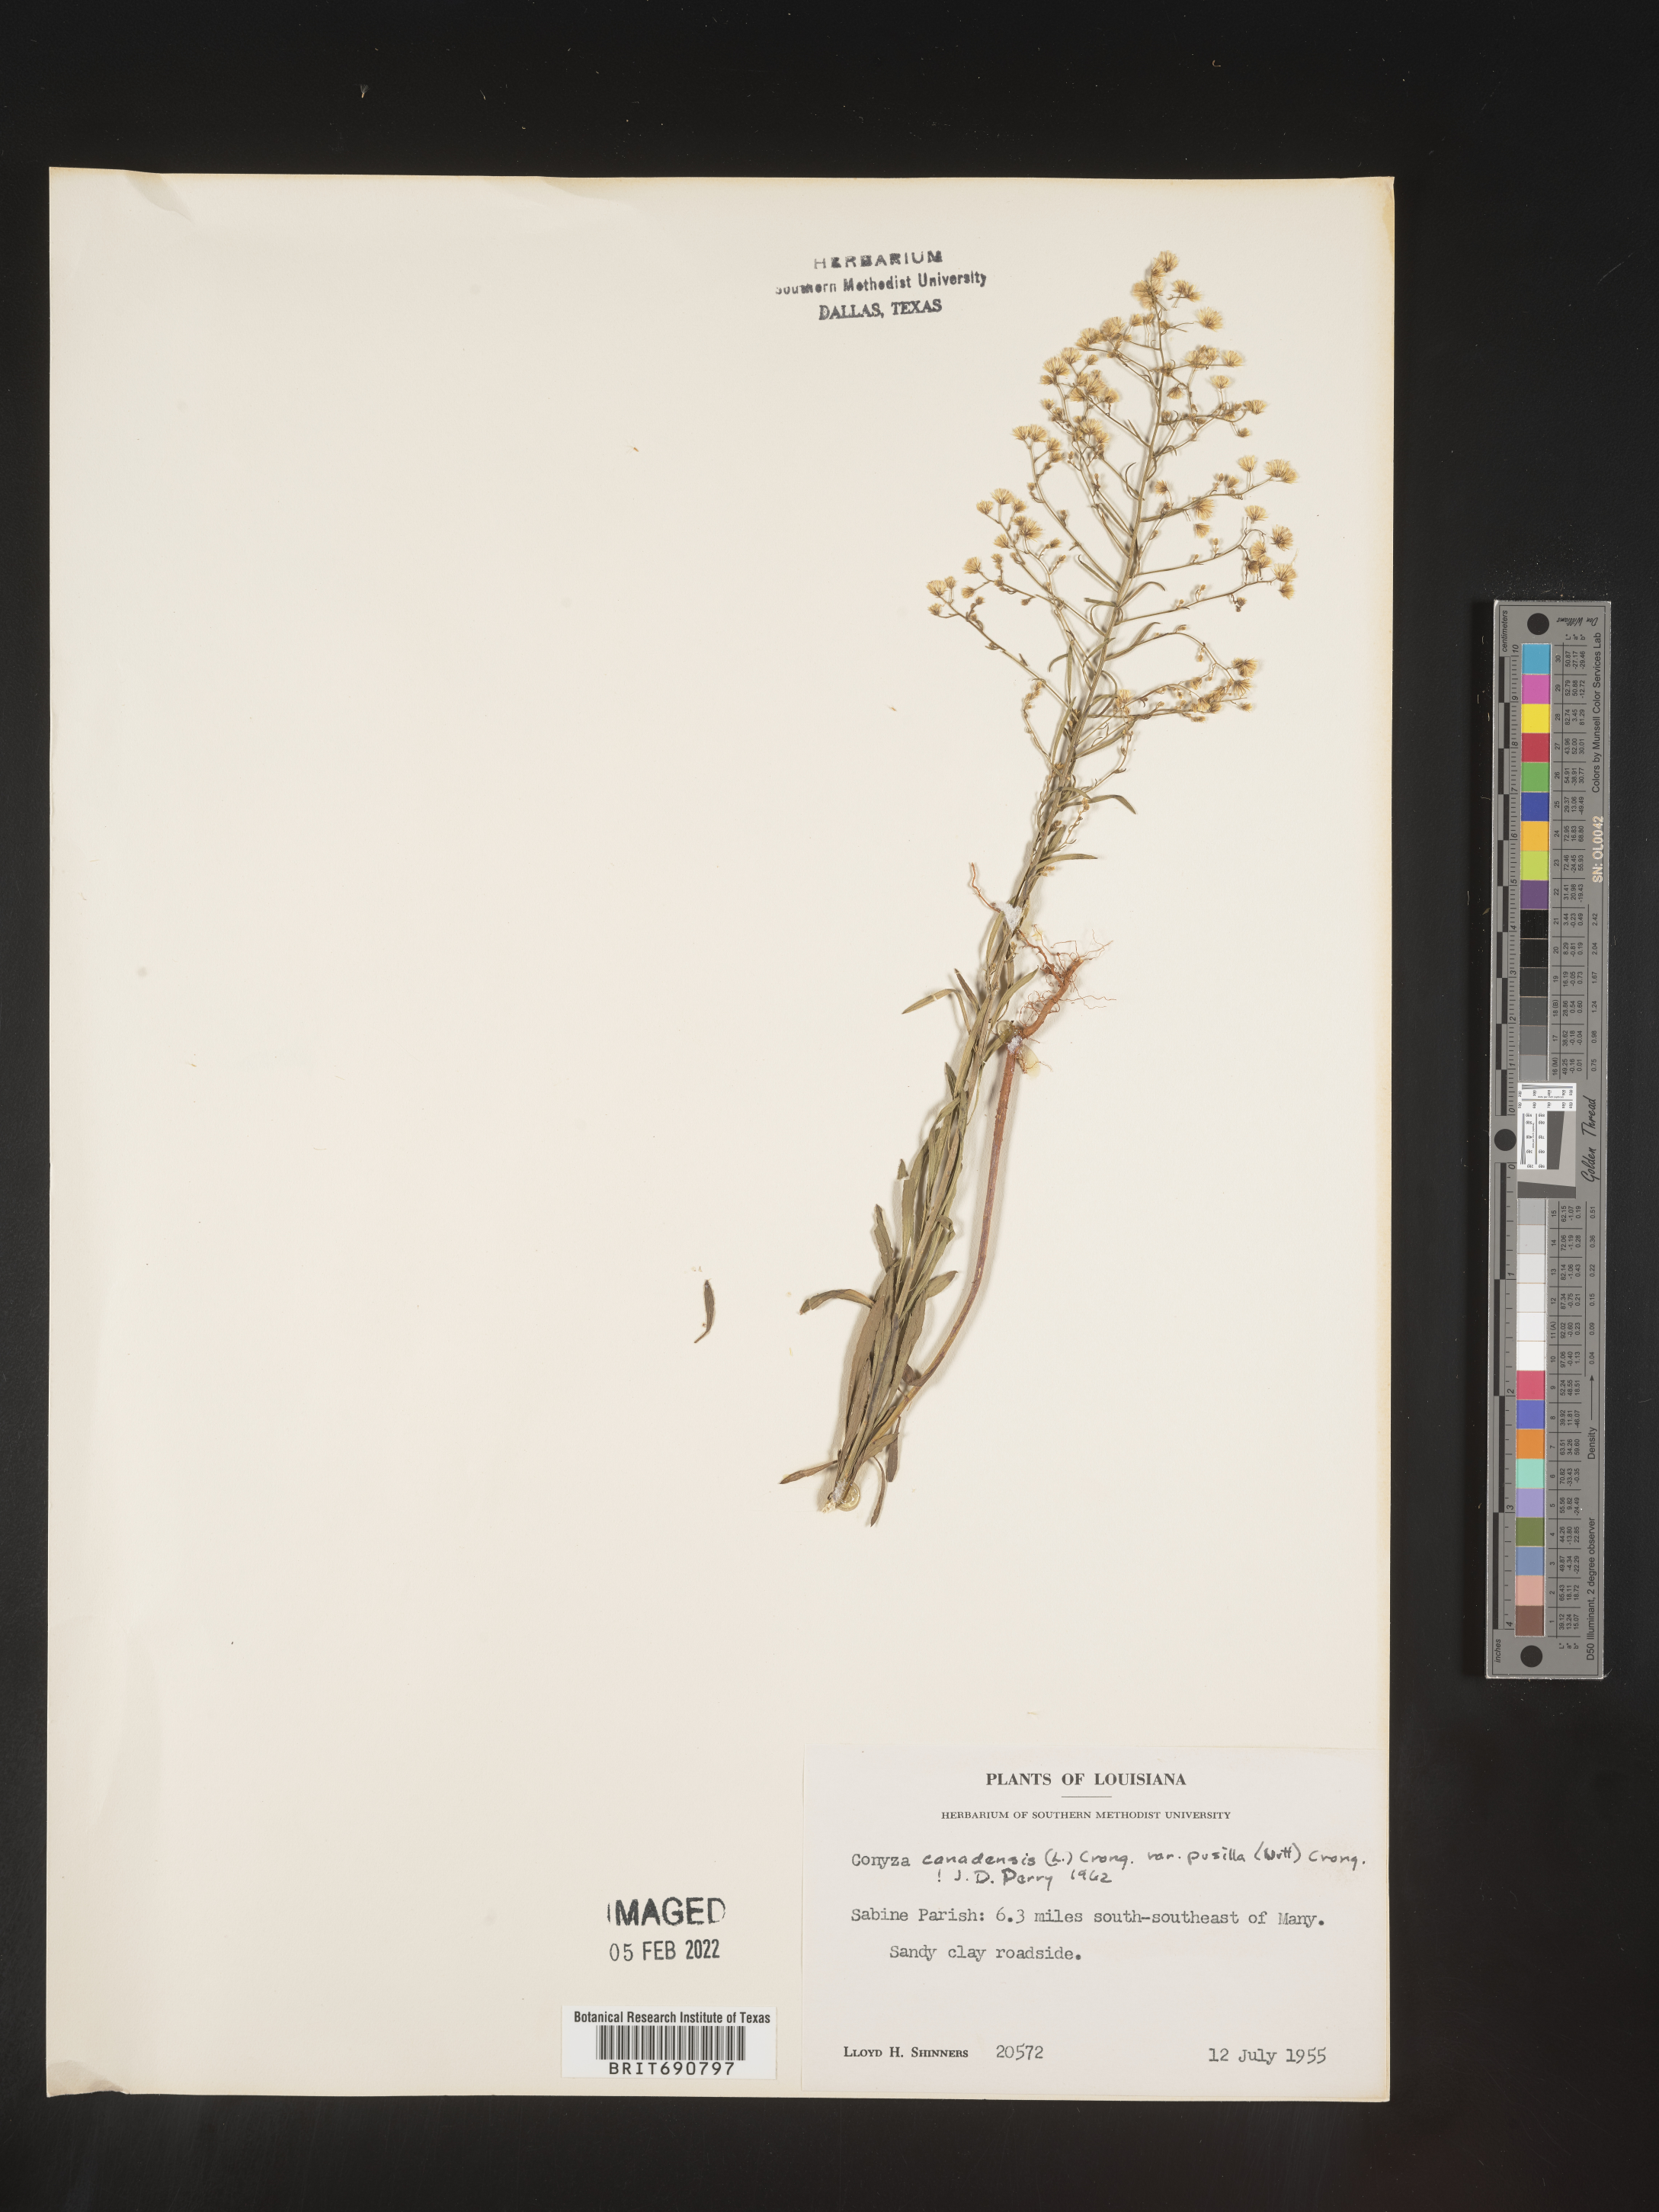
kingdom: Plantae
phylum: Tracheophyta
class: Magnoliopsida
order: Asterales
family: Asteraceae
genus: Erigeron
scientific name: Erigeron canadensis
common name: Canadian fleabane
